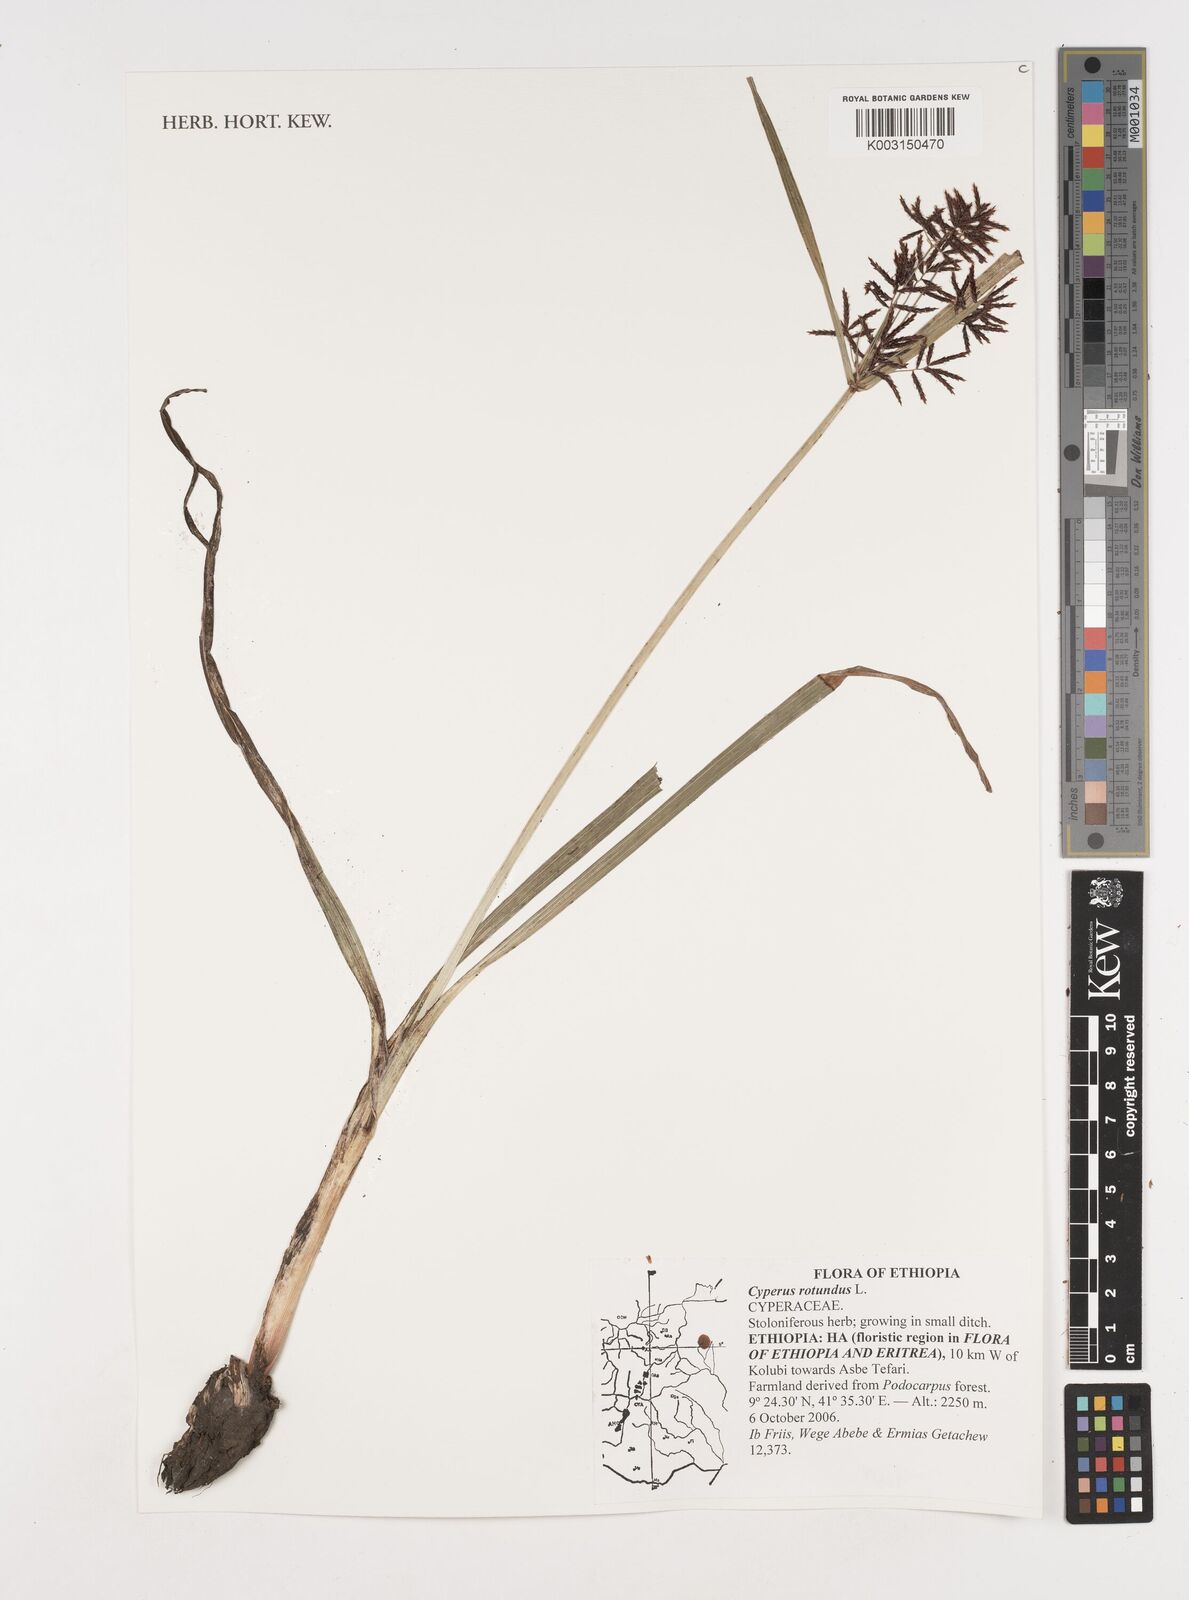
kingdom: Plantae
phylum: Tracheophyta
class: Liliopsida
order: Poales
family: Cyperaceae
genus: Cyperus
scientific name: Cyperus rotundus
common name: Nutgrass
